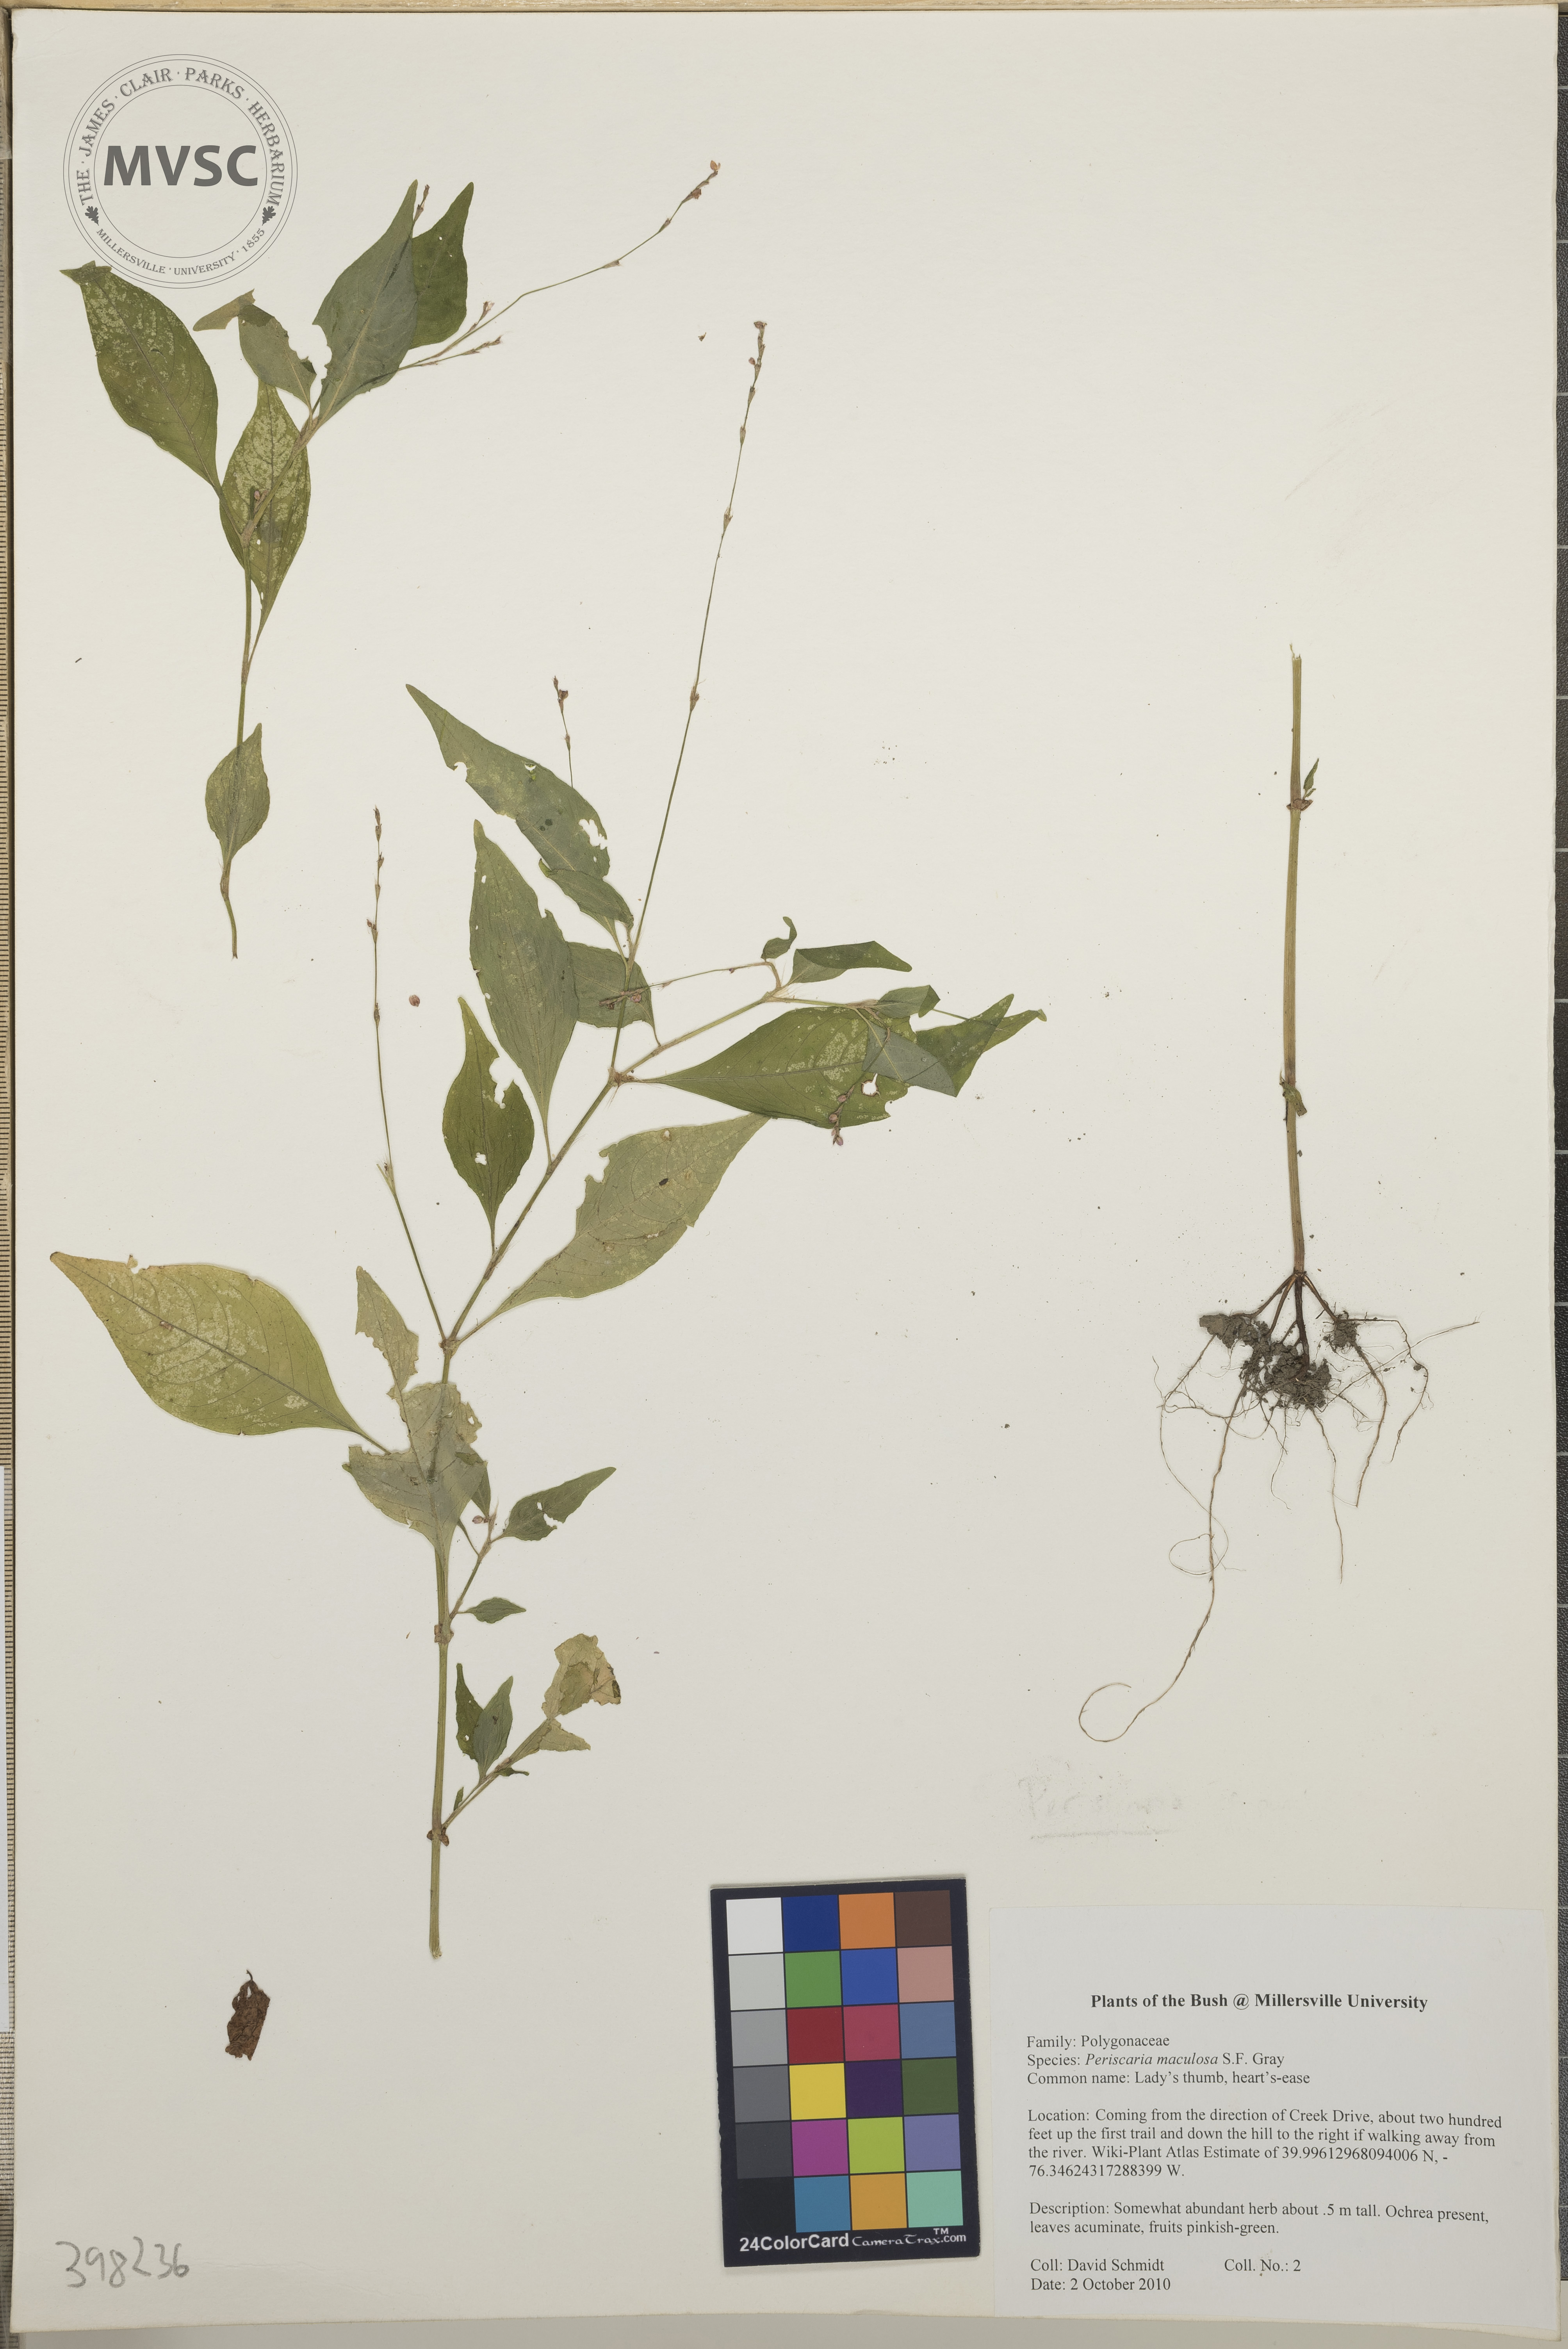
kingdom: Plantae
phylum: Tracheophyta
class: Magnoliopsida
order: Caryophyllales
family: Polygonaceae
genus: Persicaria
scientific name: Persicaria maculosa
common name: Lady's-thumb
